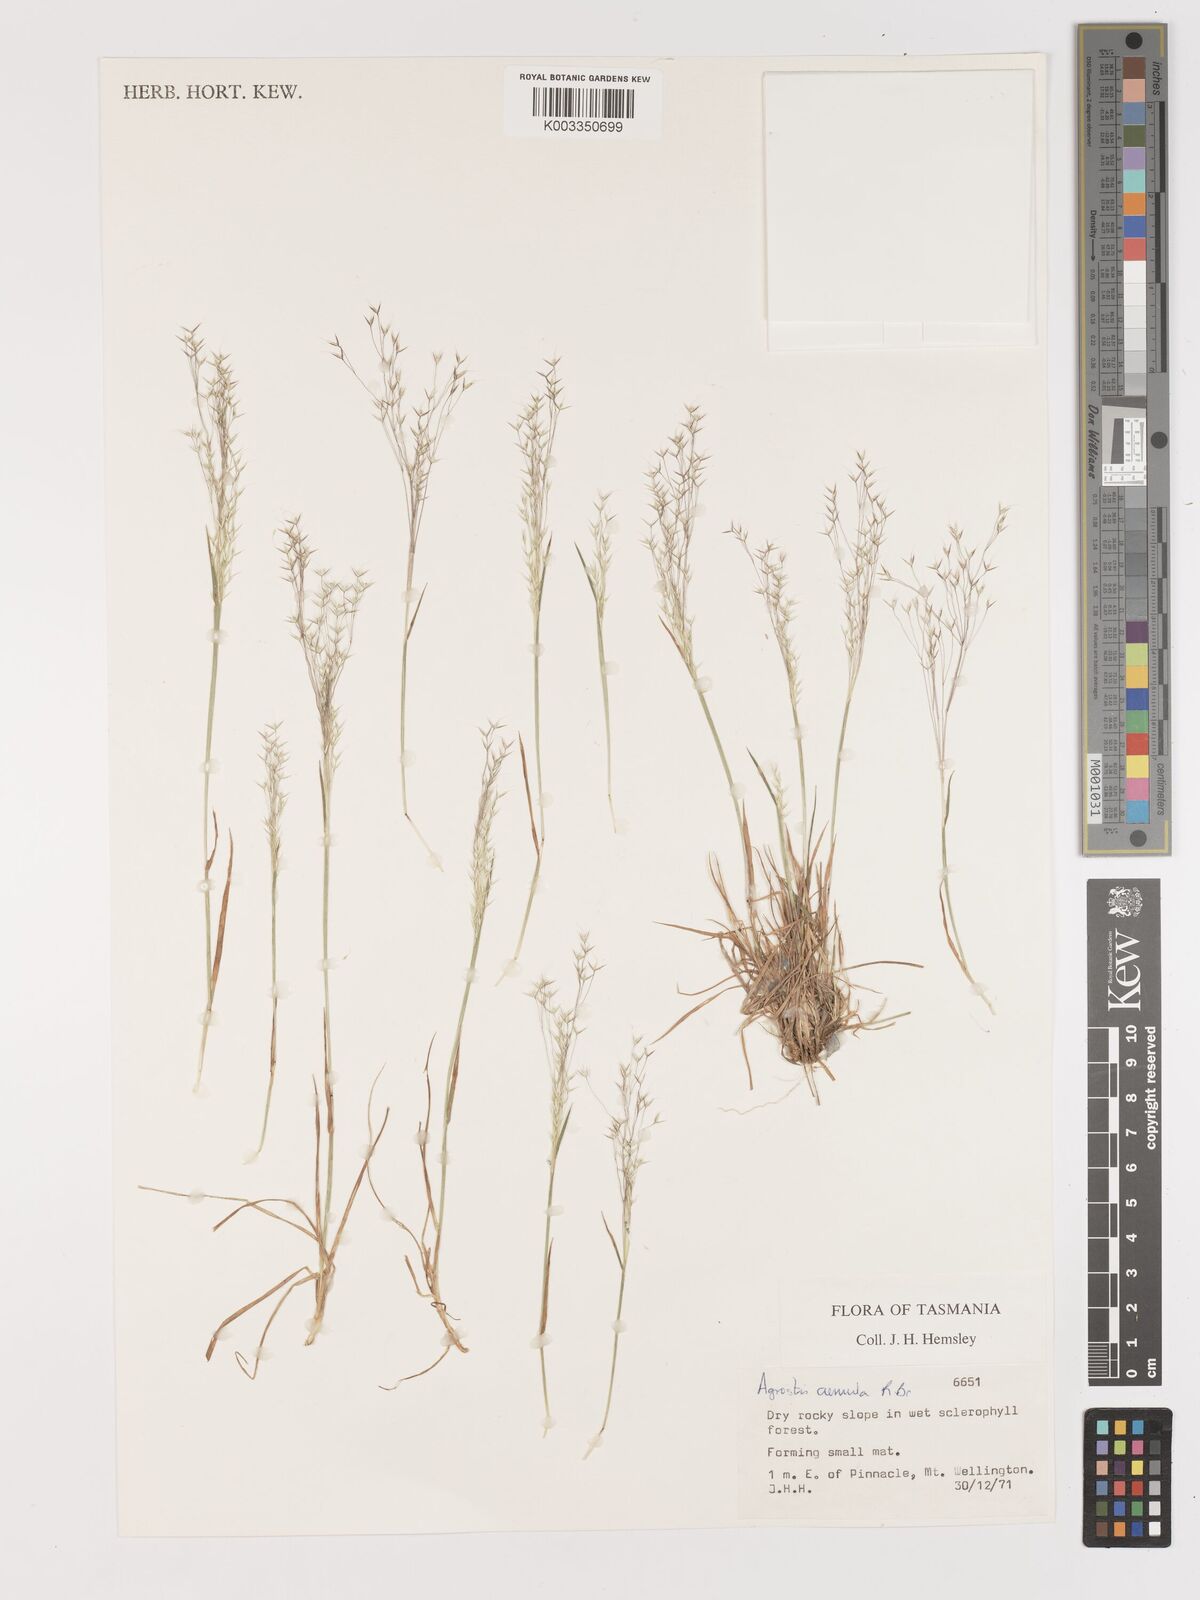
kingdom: Plantae
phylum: Tracheophyta
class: Liliopsida
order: Poales
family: Poaceae
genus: Lachnagrostis
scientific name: Lachnagrostis aemula
